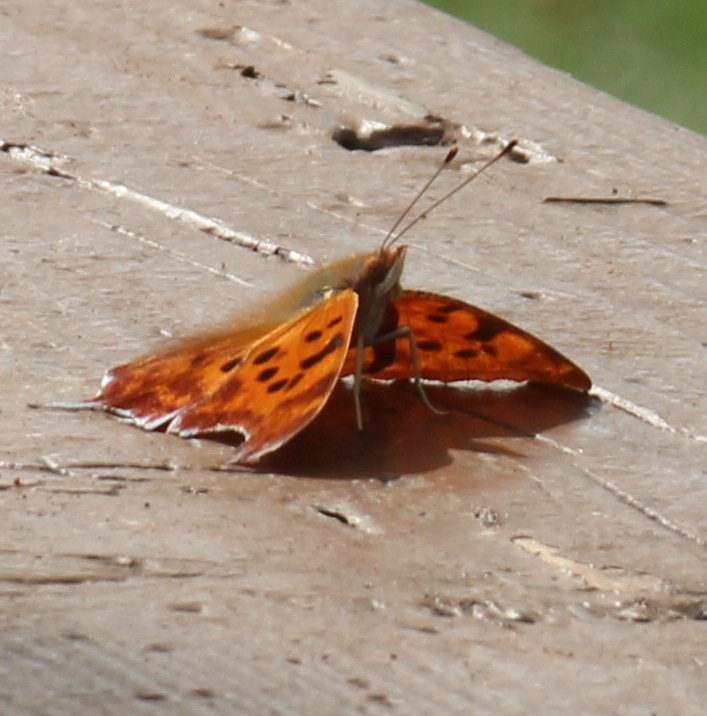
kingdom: Animalia
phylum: Arthropoda
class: Insecta
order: Lepidoptera
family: Nymphalidae
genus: Polygonia
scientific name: Polygonia interrogationis
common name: Question Mark
